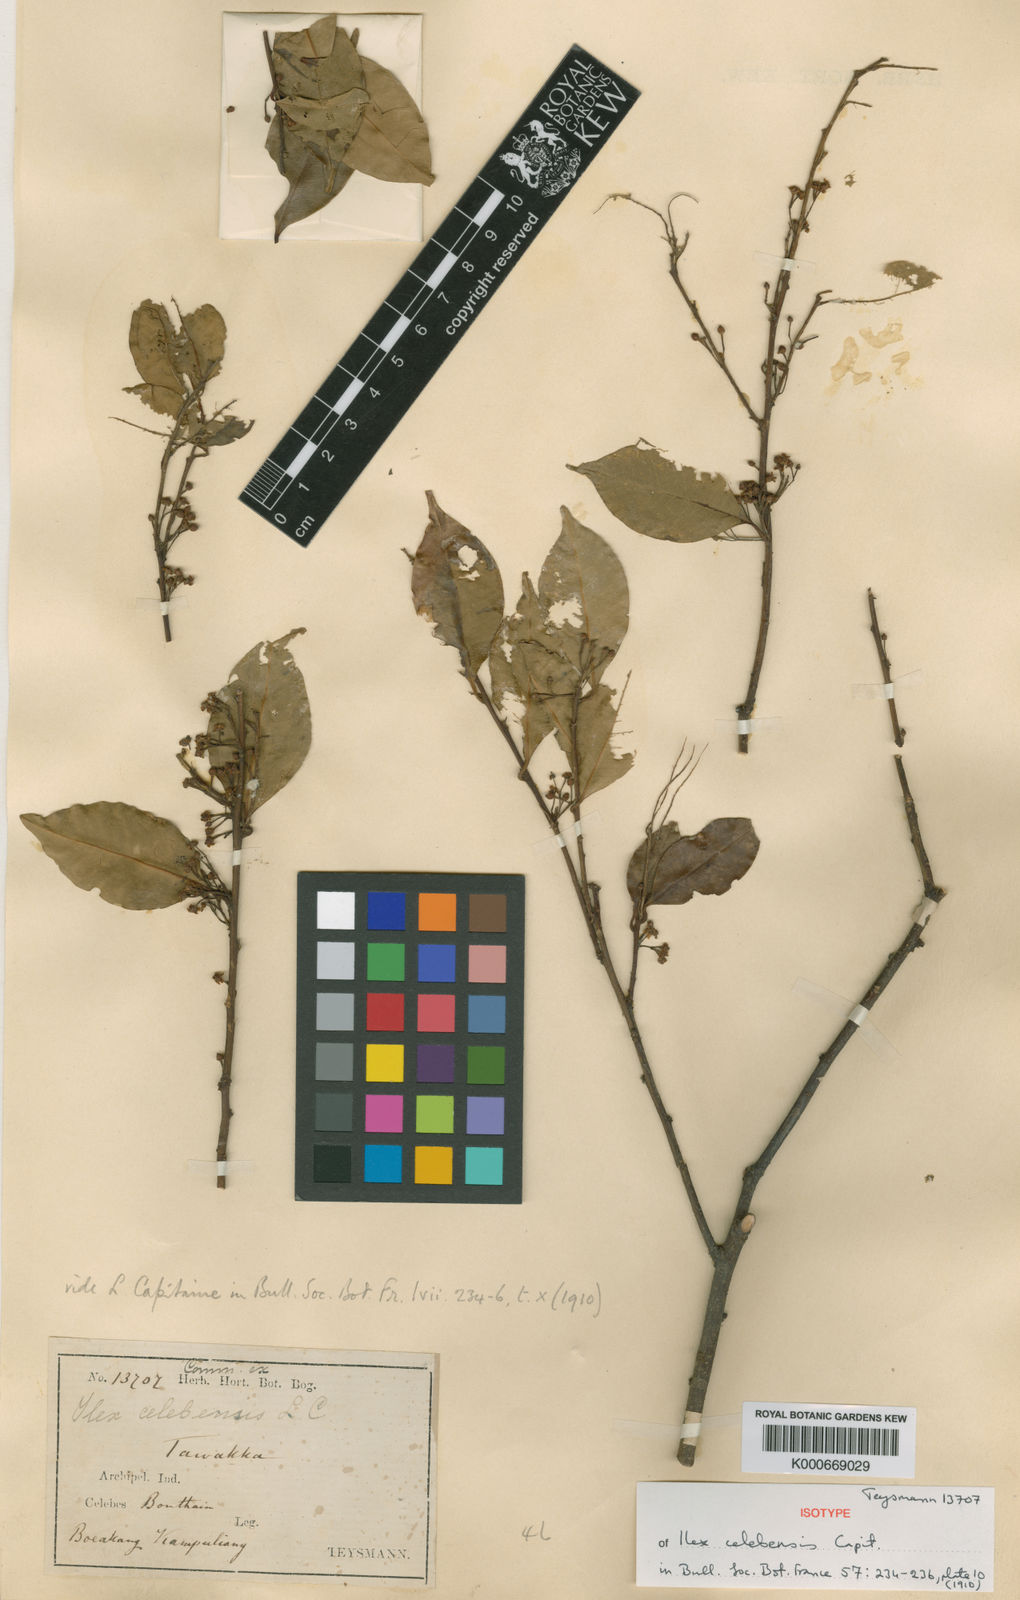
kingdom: Plantae
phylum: Tracheophyta
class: Magnoliopsida
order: Aquifoliales
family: Aquifoliaceae
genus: Ilex
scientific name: Ilex celebensis
